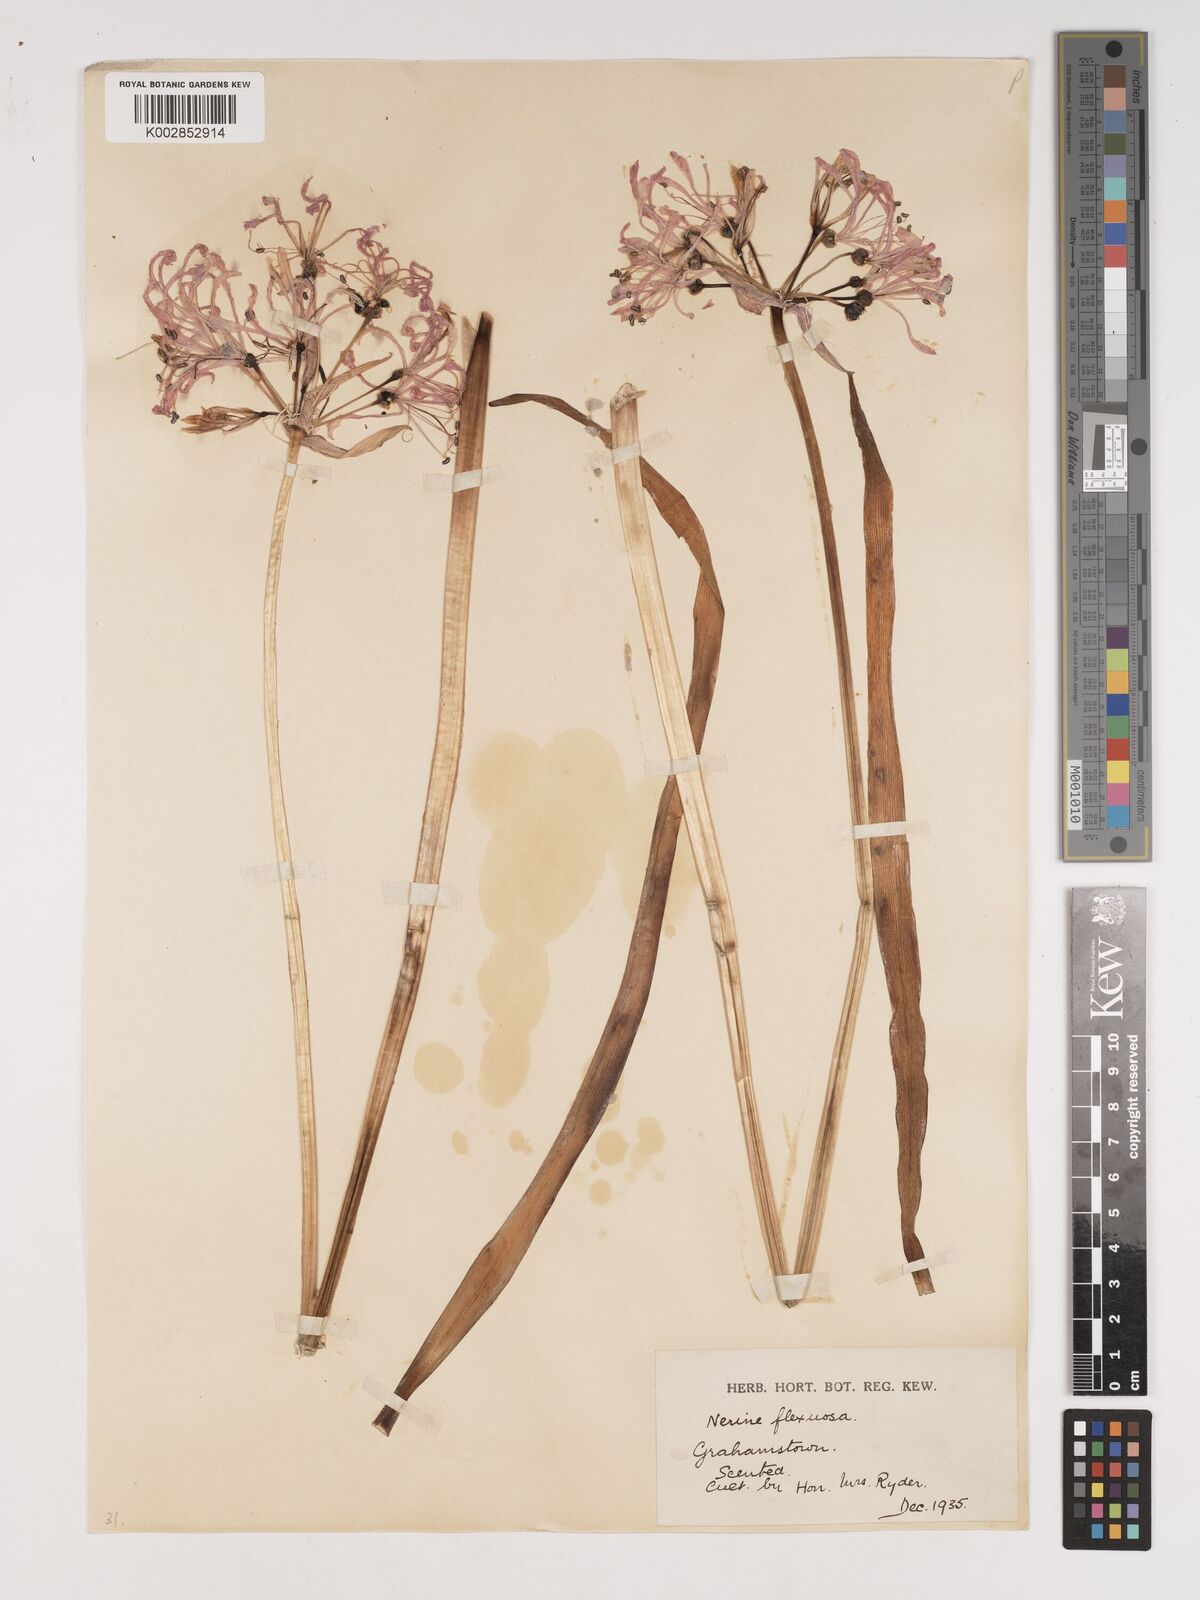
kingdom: Plantae
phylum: Tracheophyta
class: Liliopsida
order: Asparagales
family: Amaryllidaceae
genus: Nerine
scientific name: Nerine undulata
